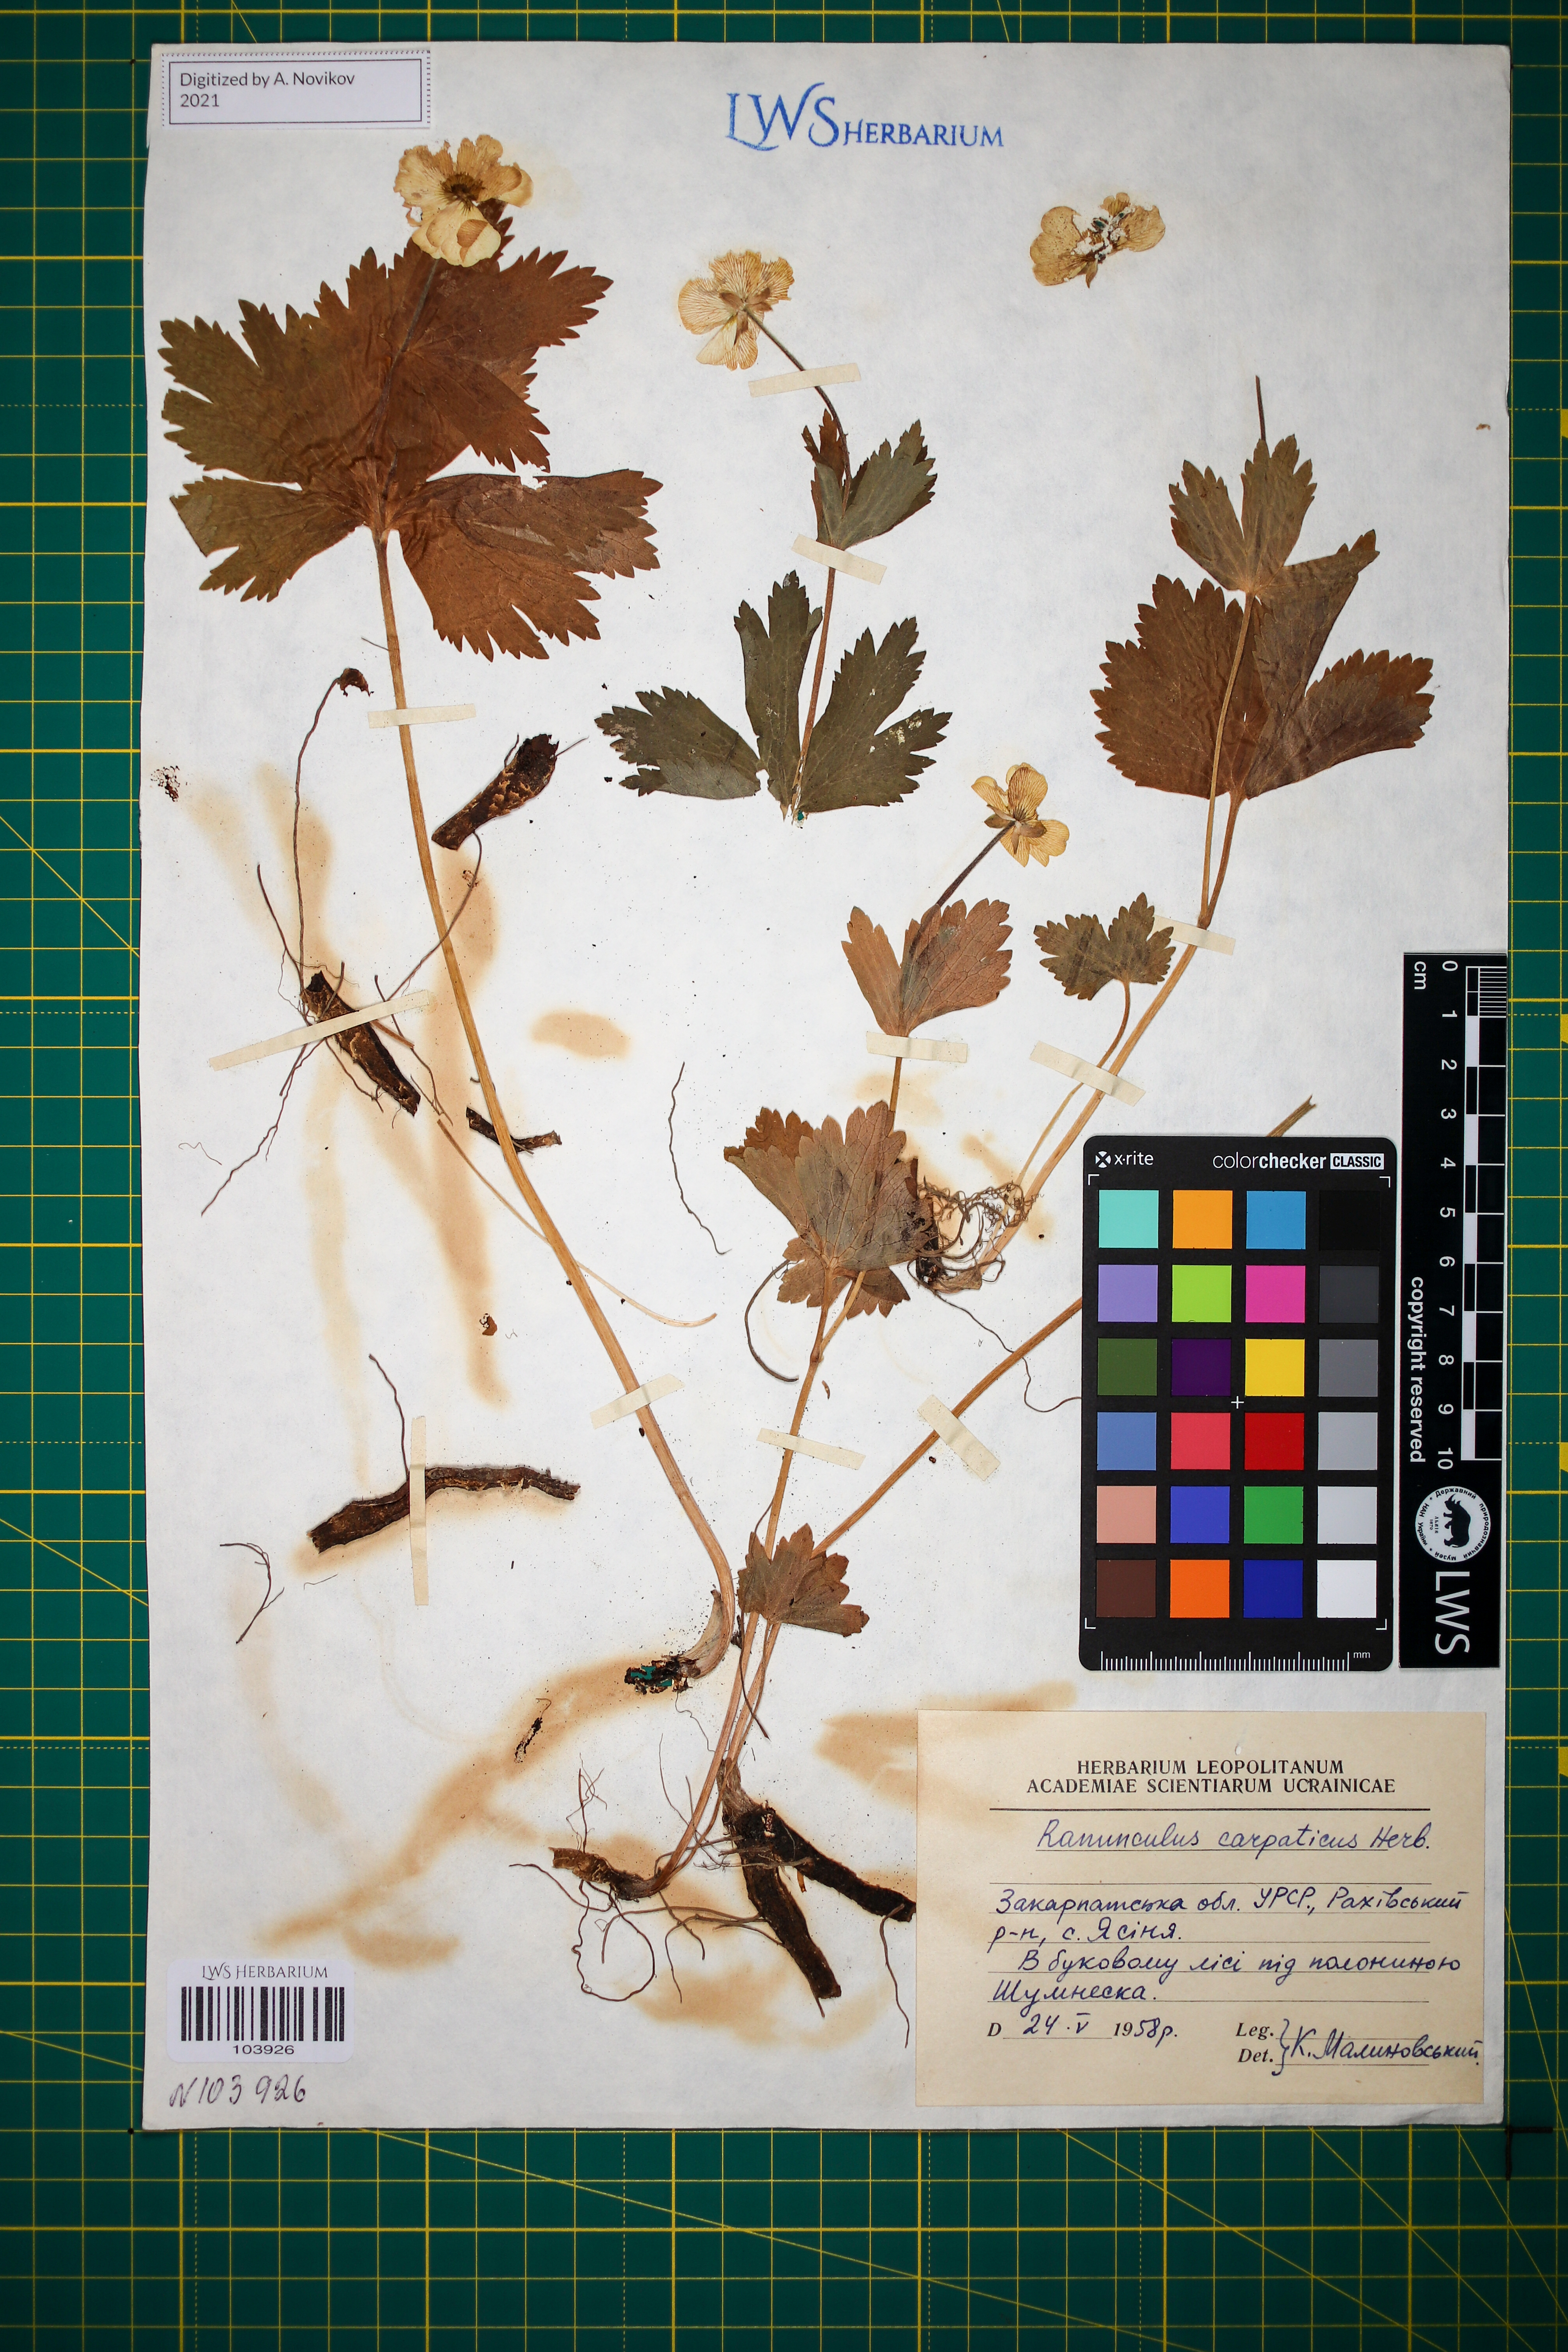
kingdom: Plantae
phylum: Tracheophyta
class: Magnoliopsida
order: Ranunculales
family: Ranunculaceae
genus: Ranunculus
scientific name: Ranunculus carpaticus
